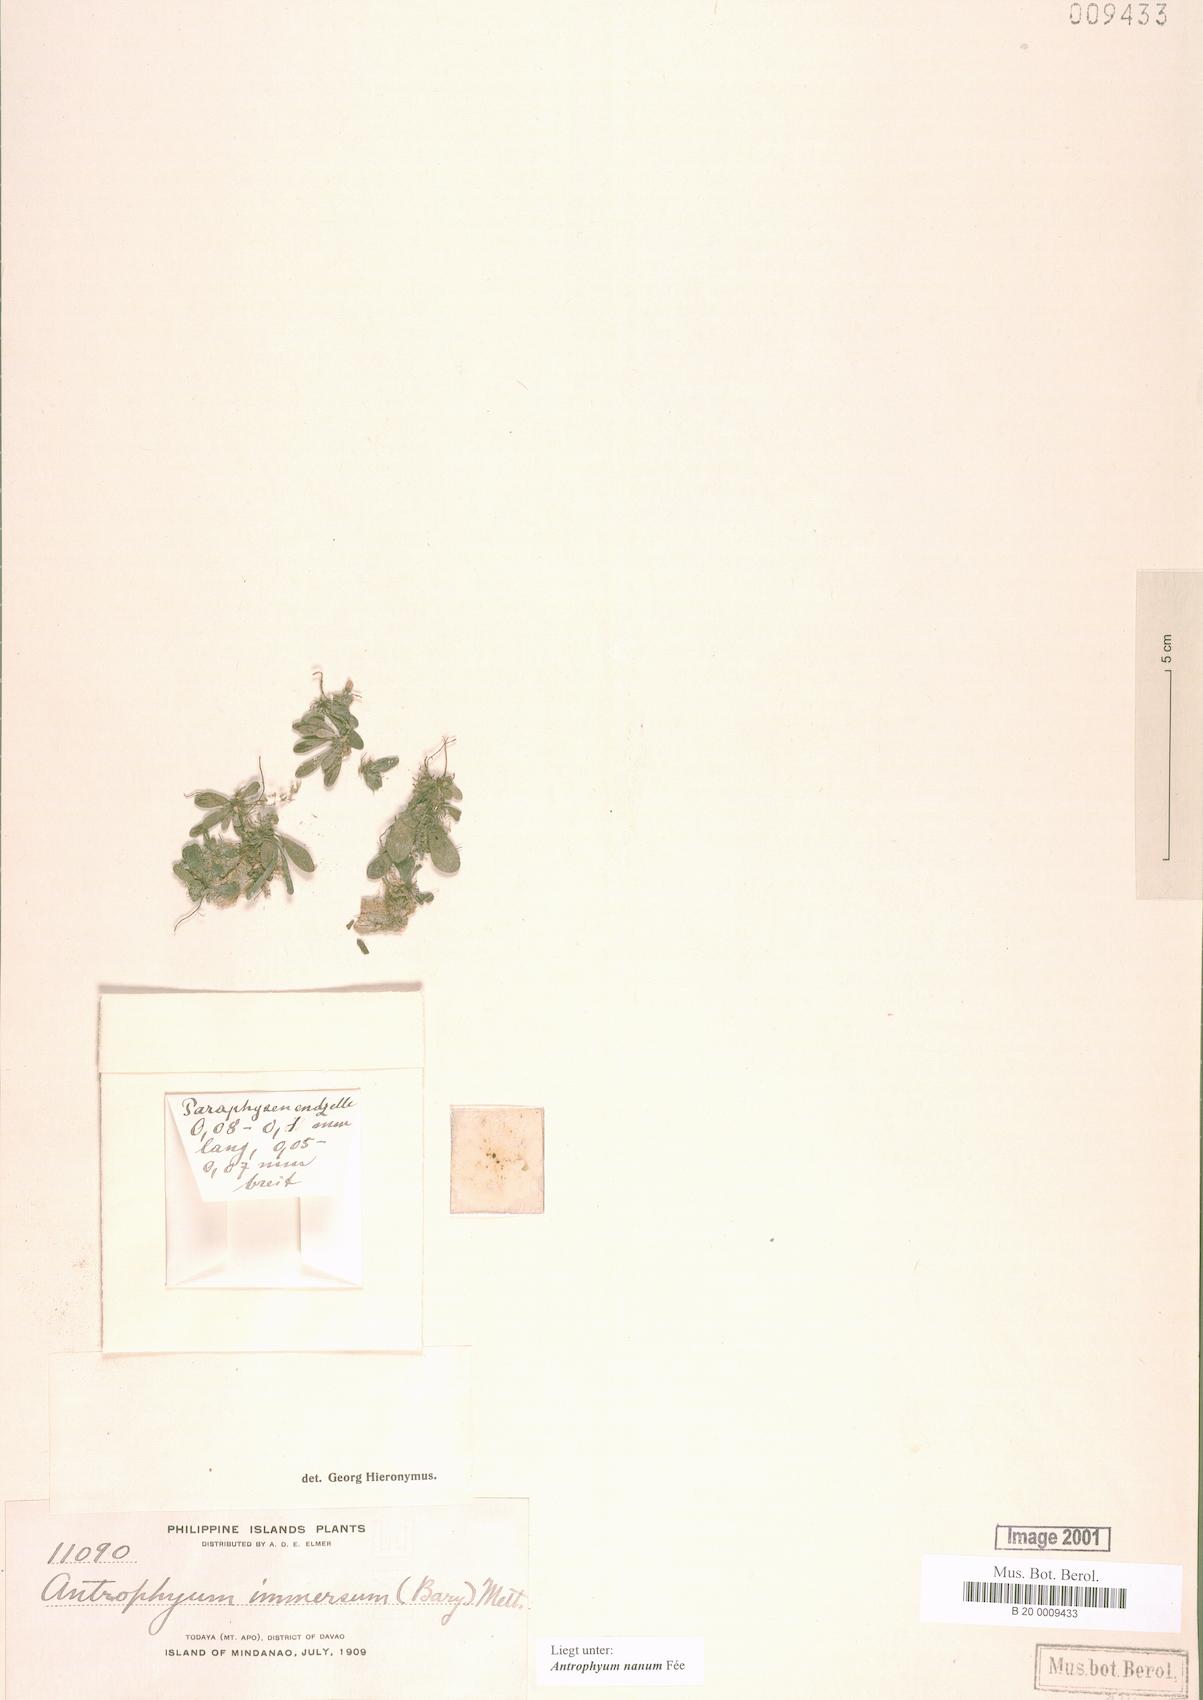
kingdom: Plantae
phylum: Tracheophyta
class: Polypodiopsida
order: Polypodiales
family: Pteridaceae
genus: Antrophyum
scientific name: Antrophyum callifolium
